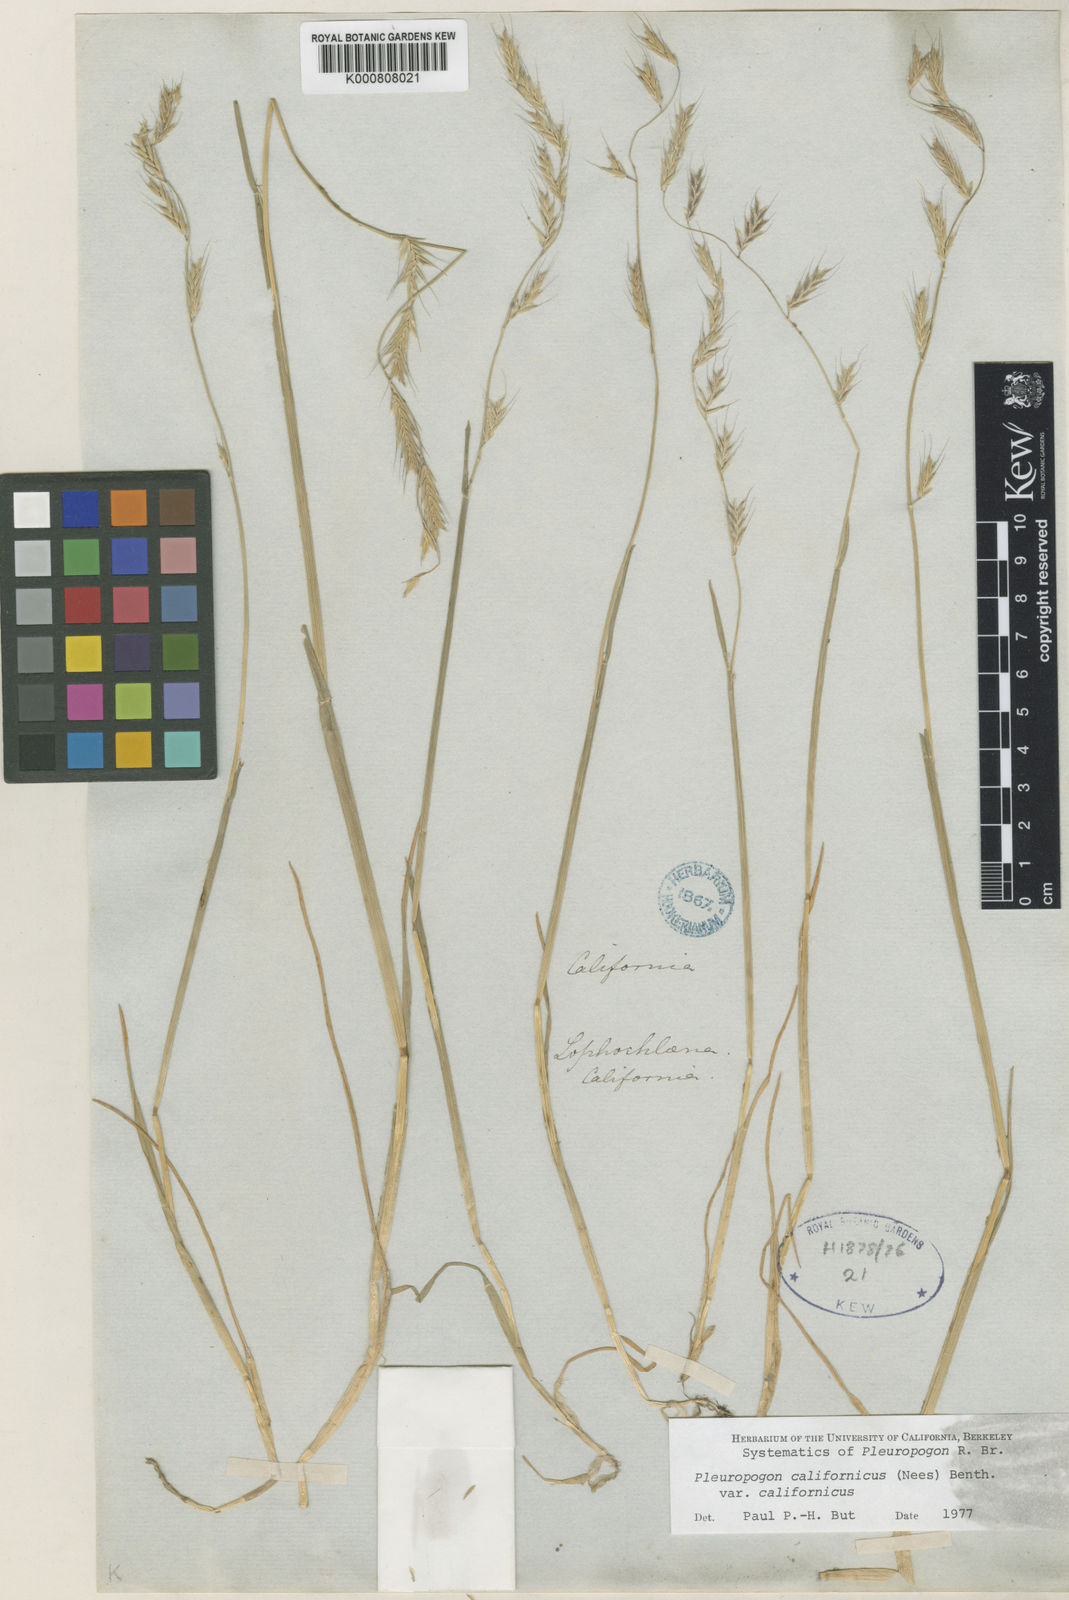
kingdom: Plantae
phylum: Tracheophyta
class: Liliopsida
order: Poales
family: Poaceae
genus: Pleuropogon
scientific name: Pleuropogon davyi
